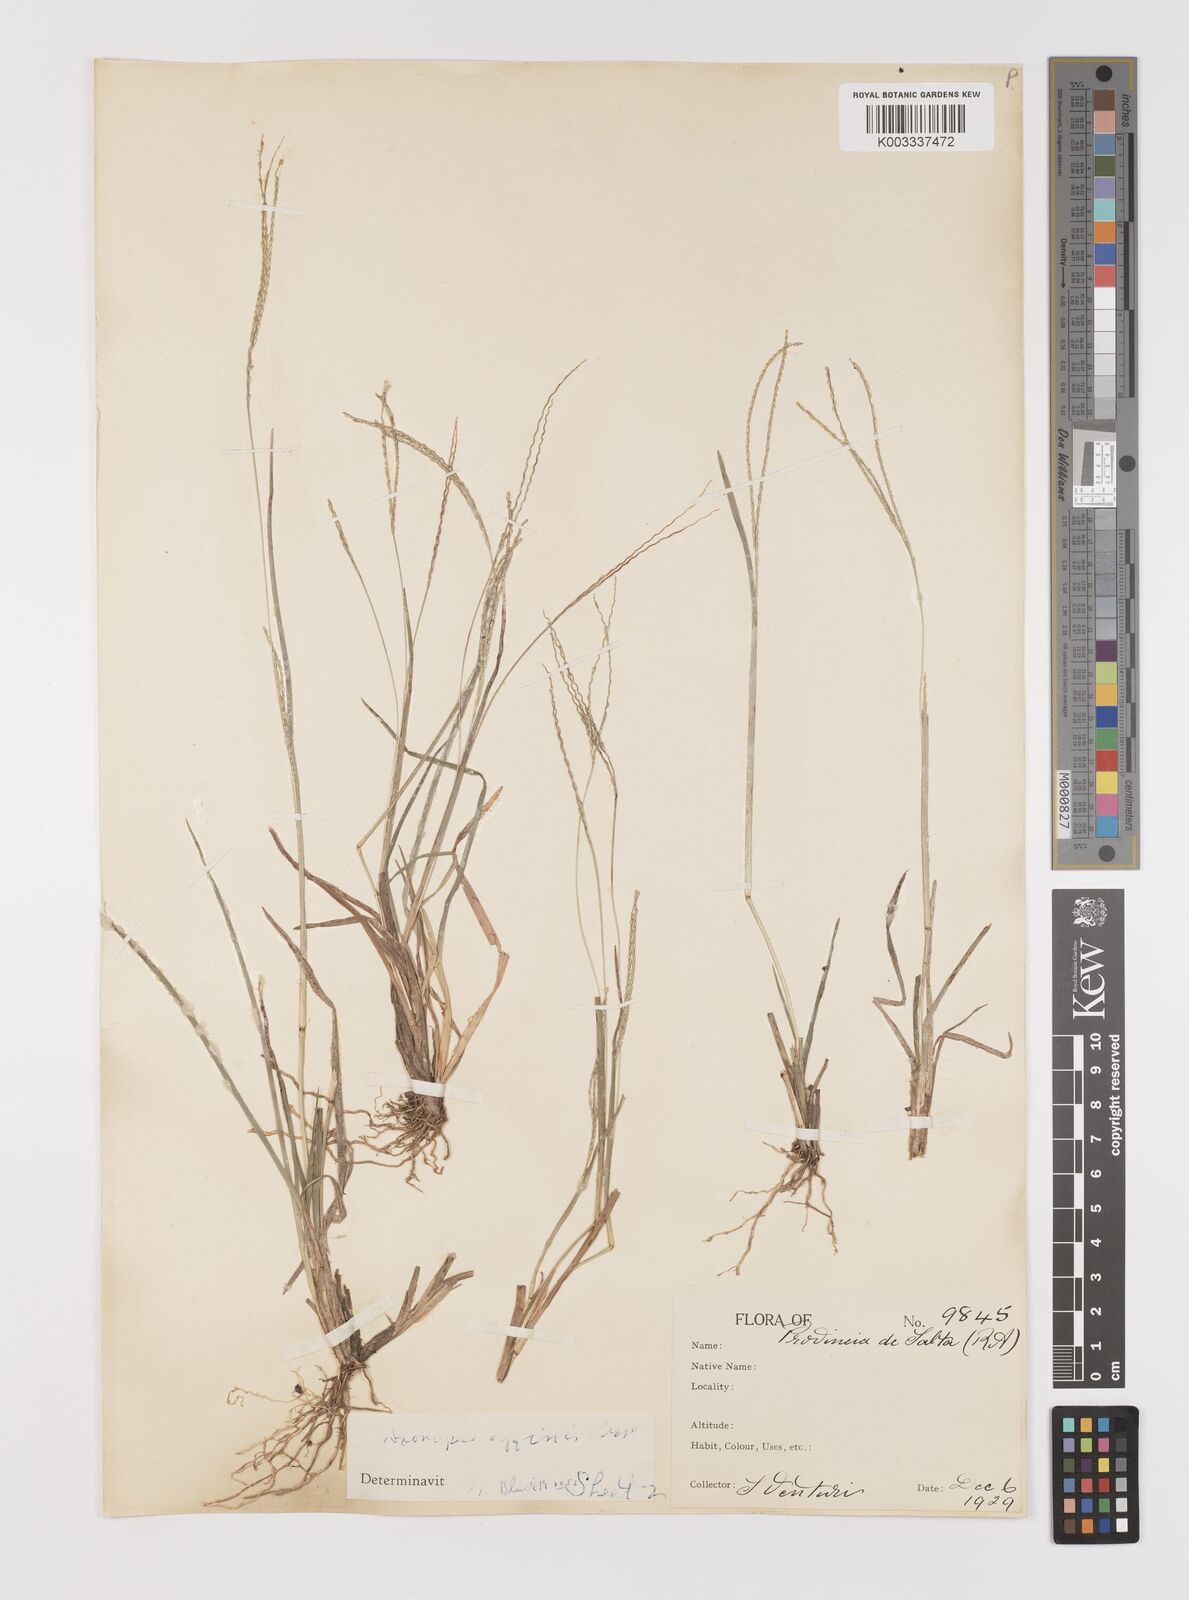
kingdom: Plantae
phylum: Tracheophyta
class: Liliopsida
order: Poales
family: Poaceae
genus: Axonopus
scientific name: Axonopus
